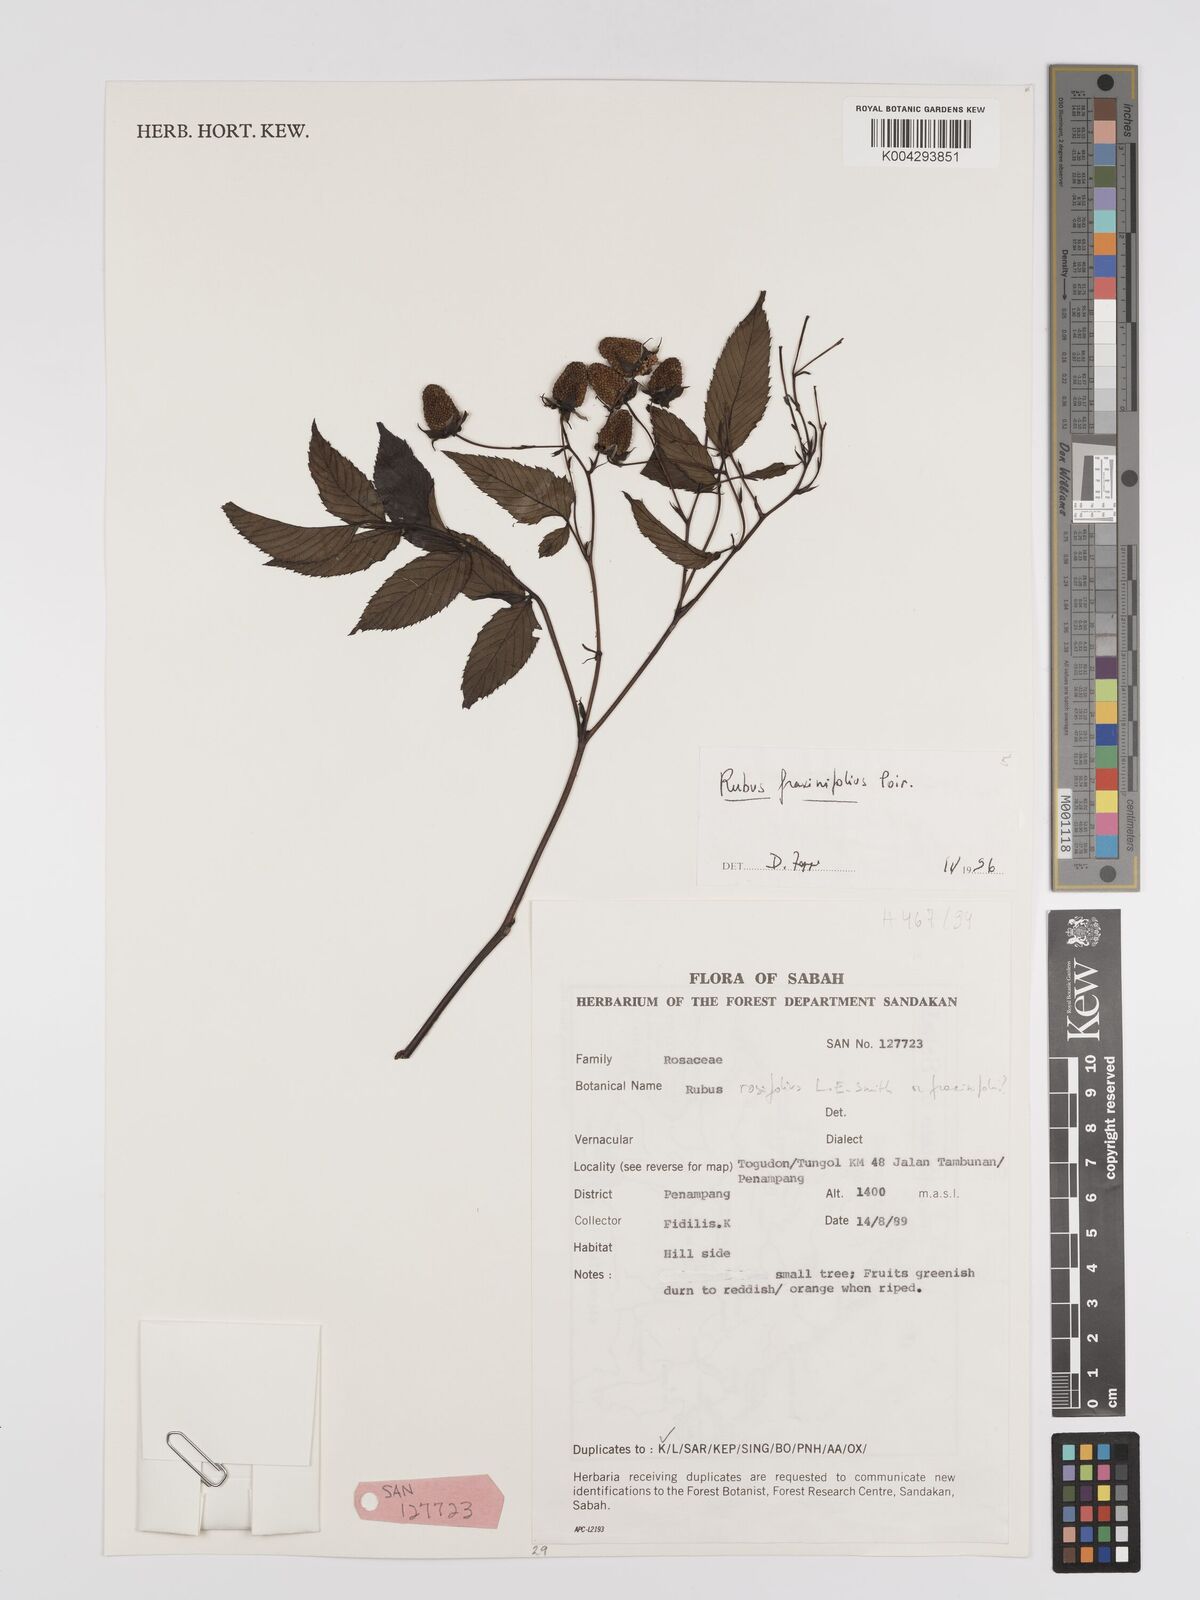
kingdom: Plantae
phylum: Tracheophyta
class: Magnoliopsida
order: Rosales
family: Rosaceae
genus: Rubus
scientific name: Rubus fraxinifolius
